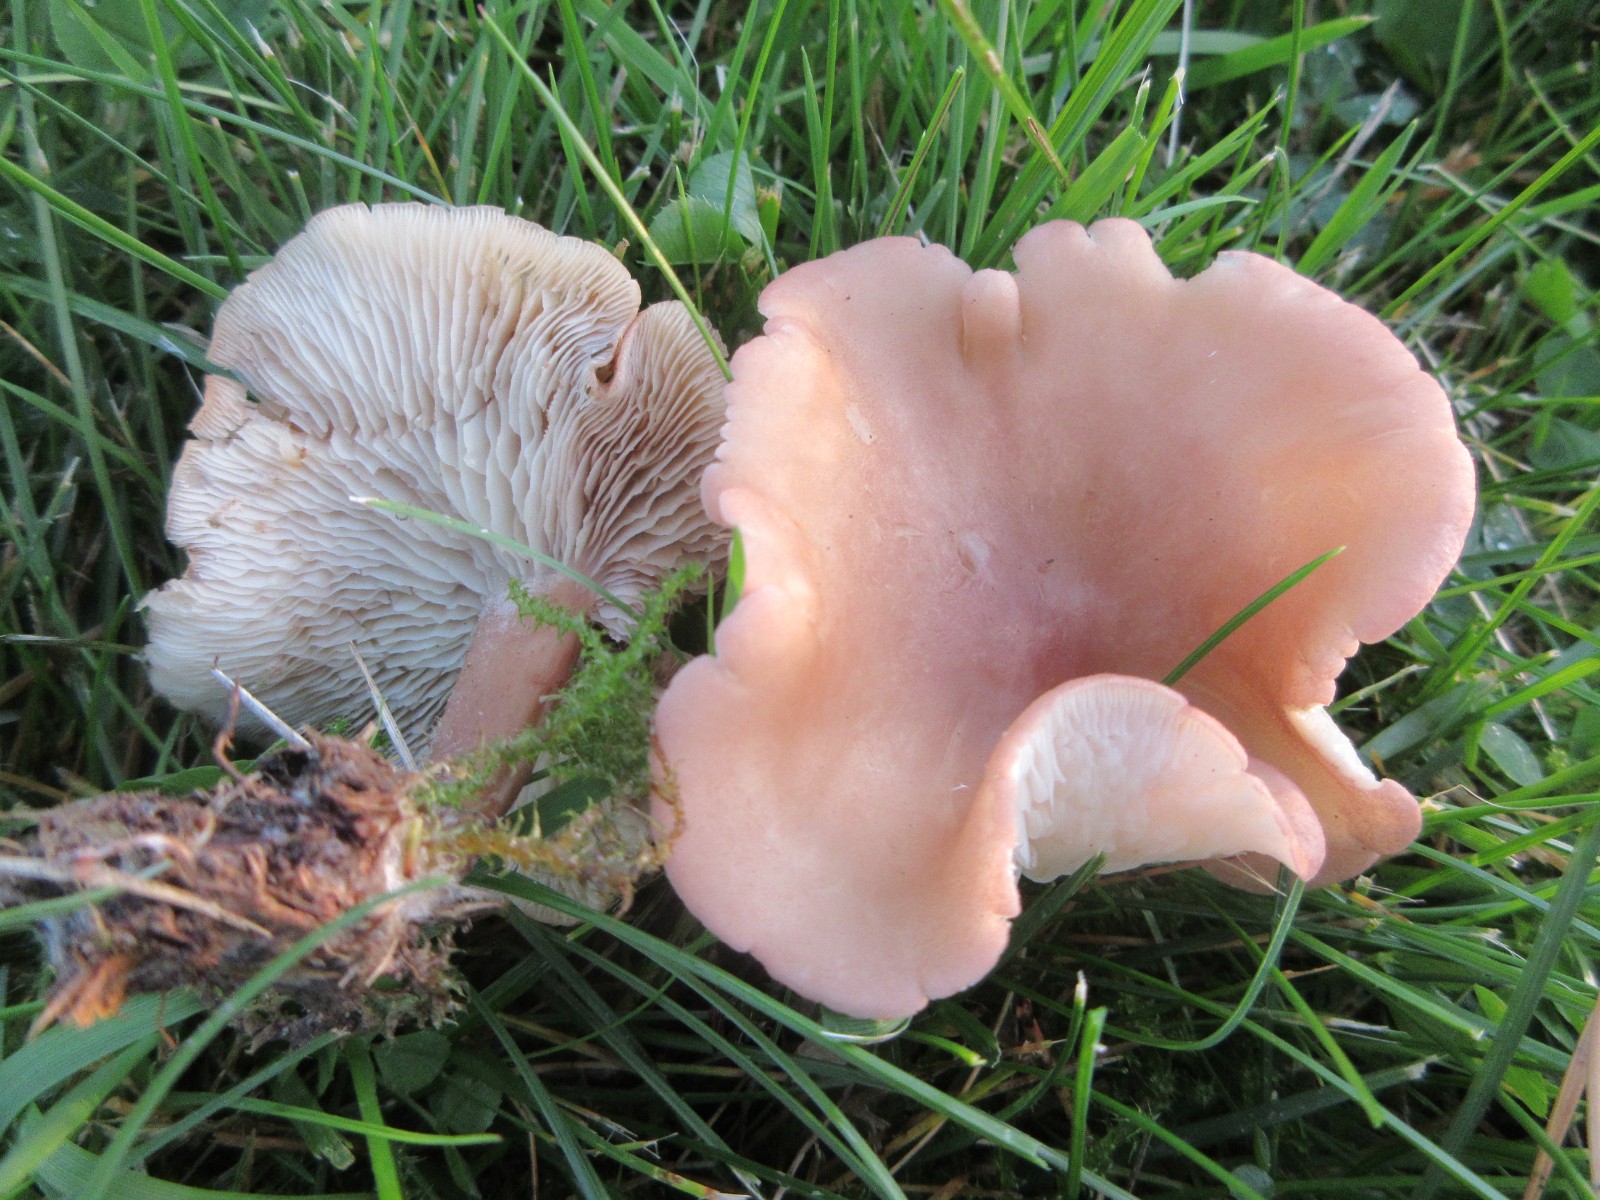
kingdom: Fungi
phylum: Basidiomycota
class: Agaricomycetes
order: Agaricales
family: Lyophyllaceae
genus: Calocybe
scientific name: Calocybe carnea
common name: rosa fagerhat
